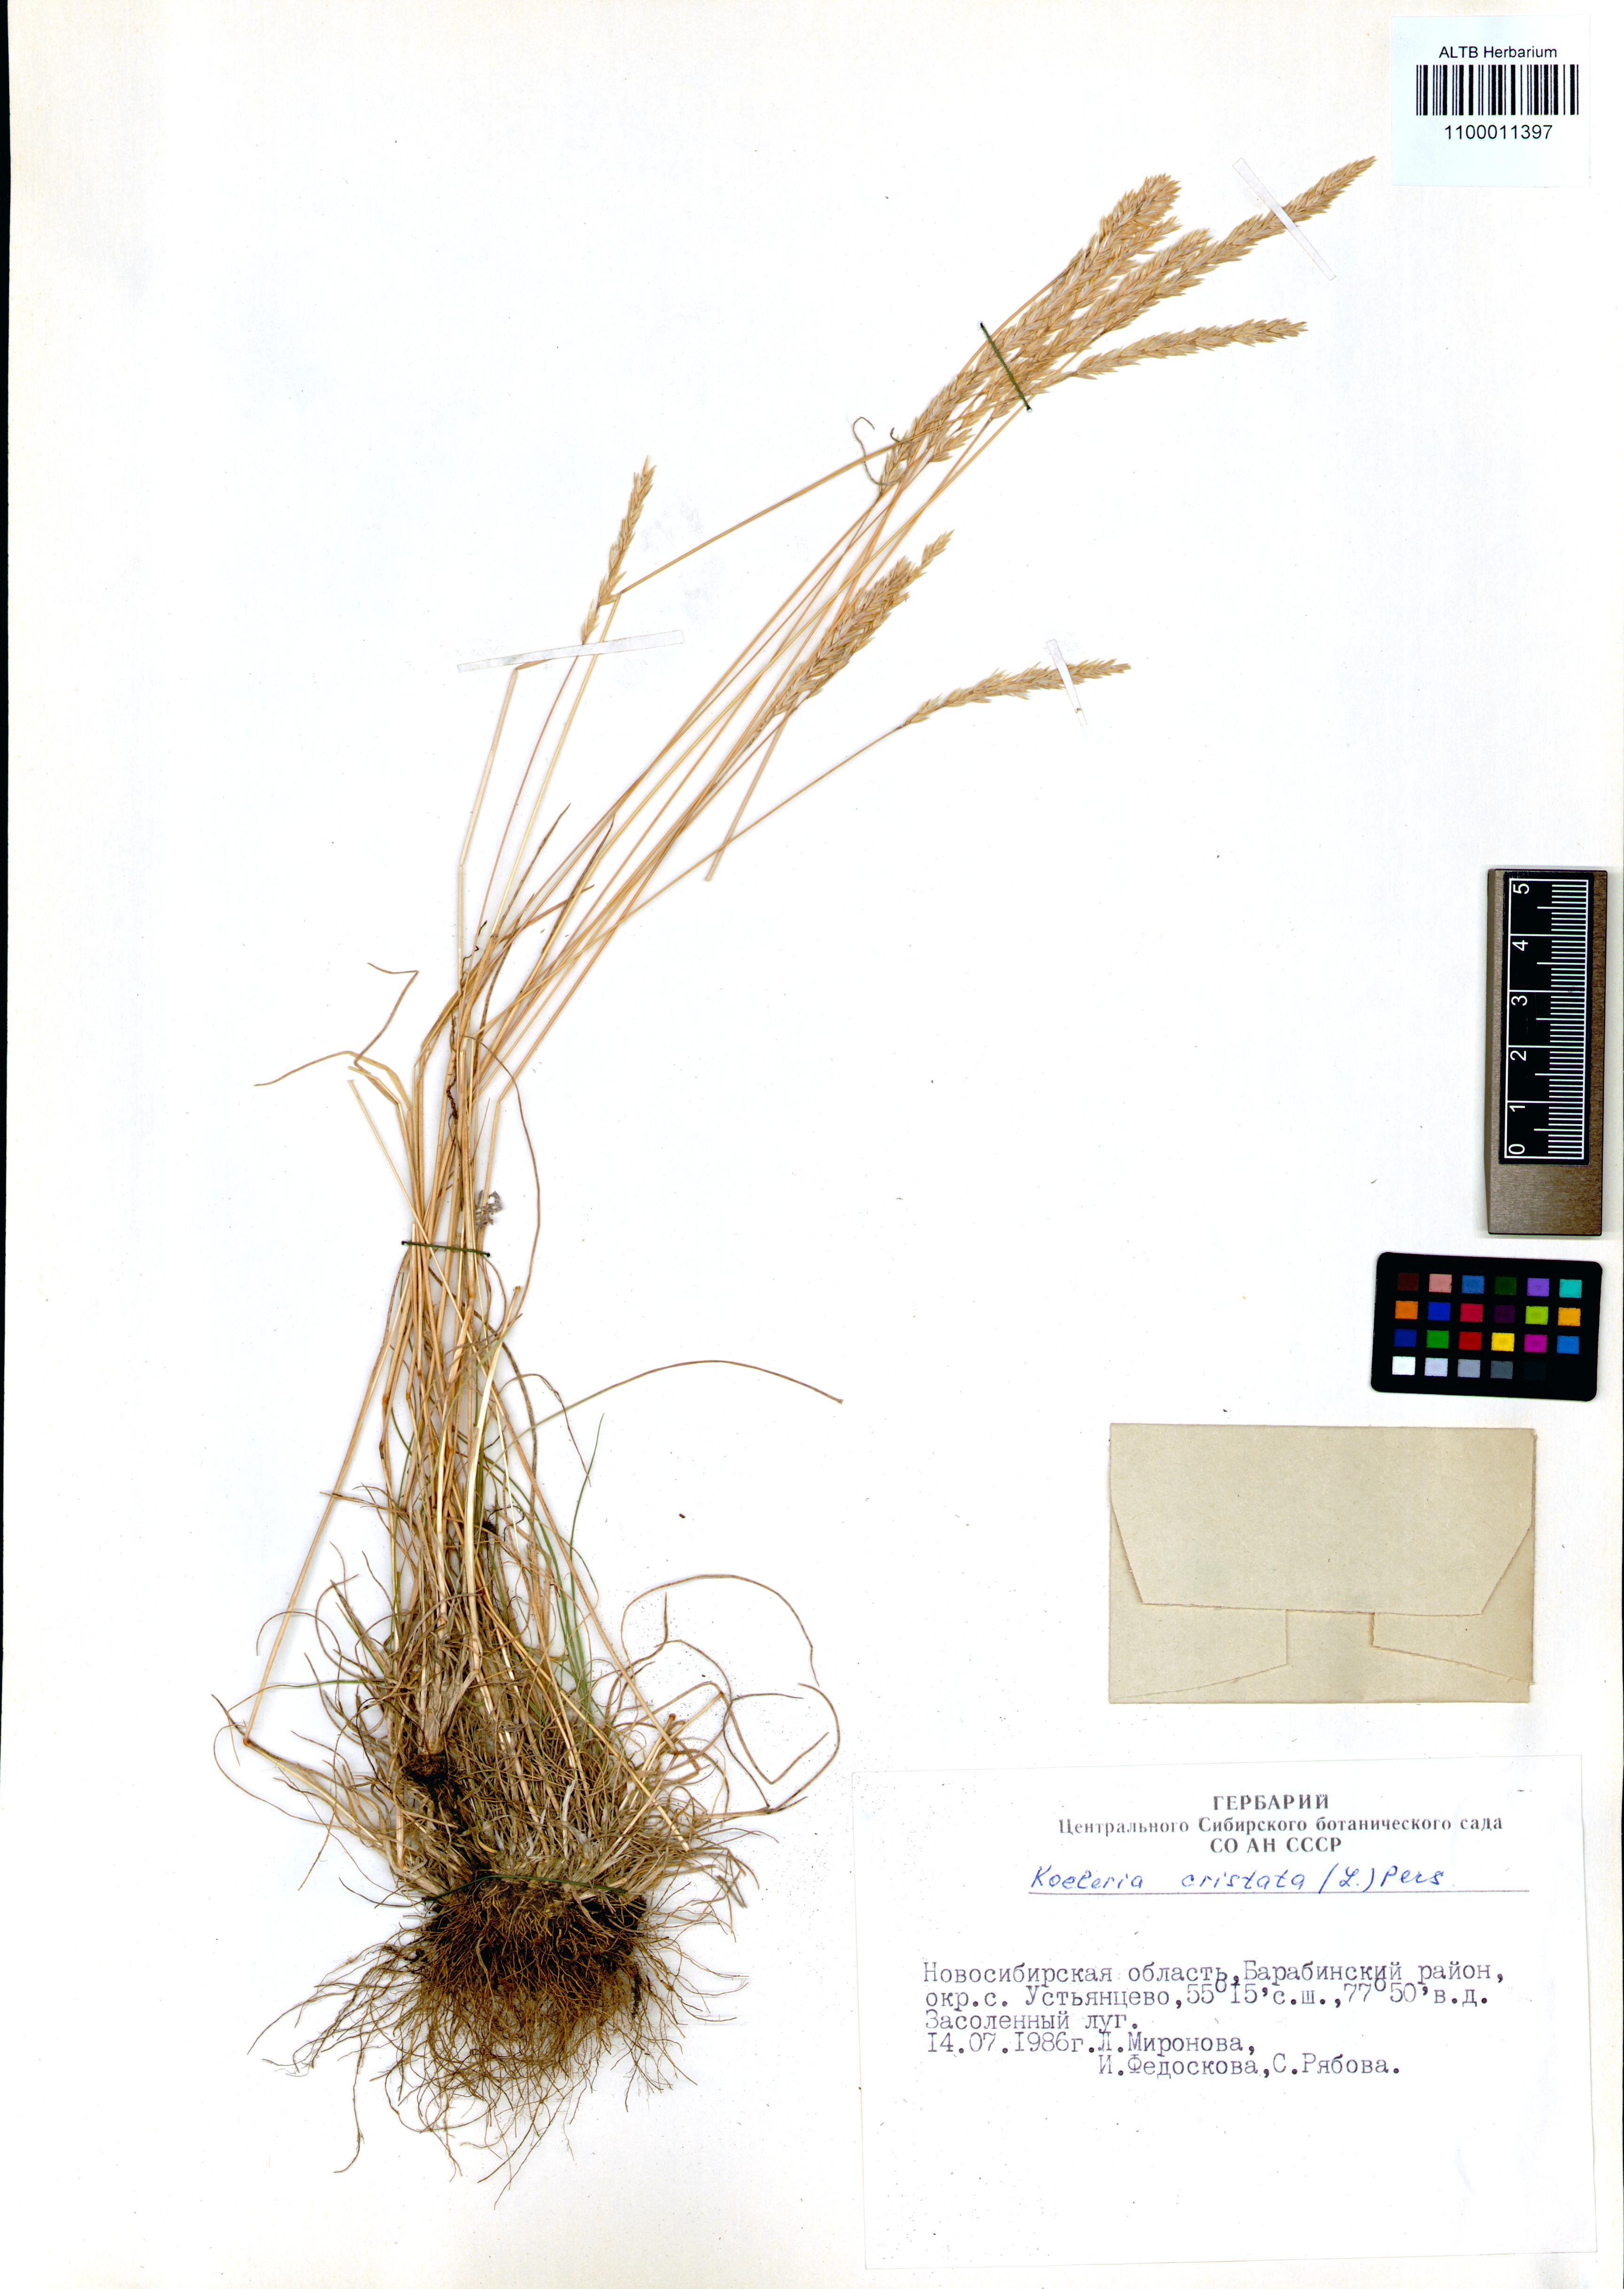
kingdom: Plantae
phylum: Tracheophyta
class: Liliopsida
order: Poales
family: Poaceae
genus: Koeleria
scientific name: Koeleria pyramidata
